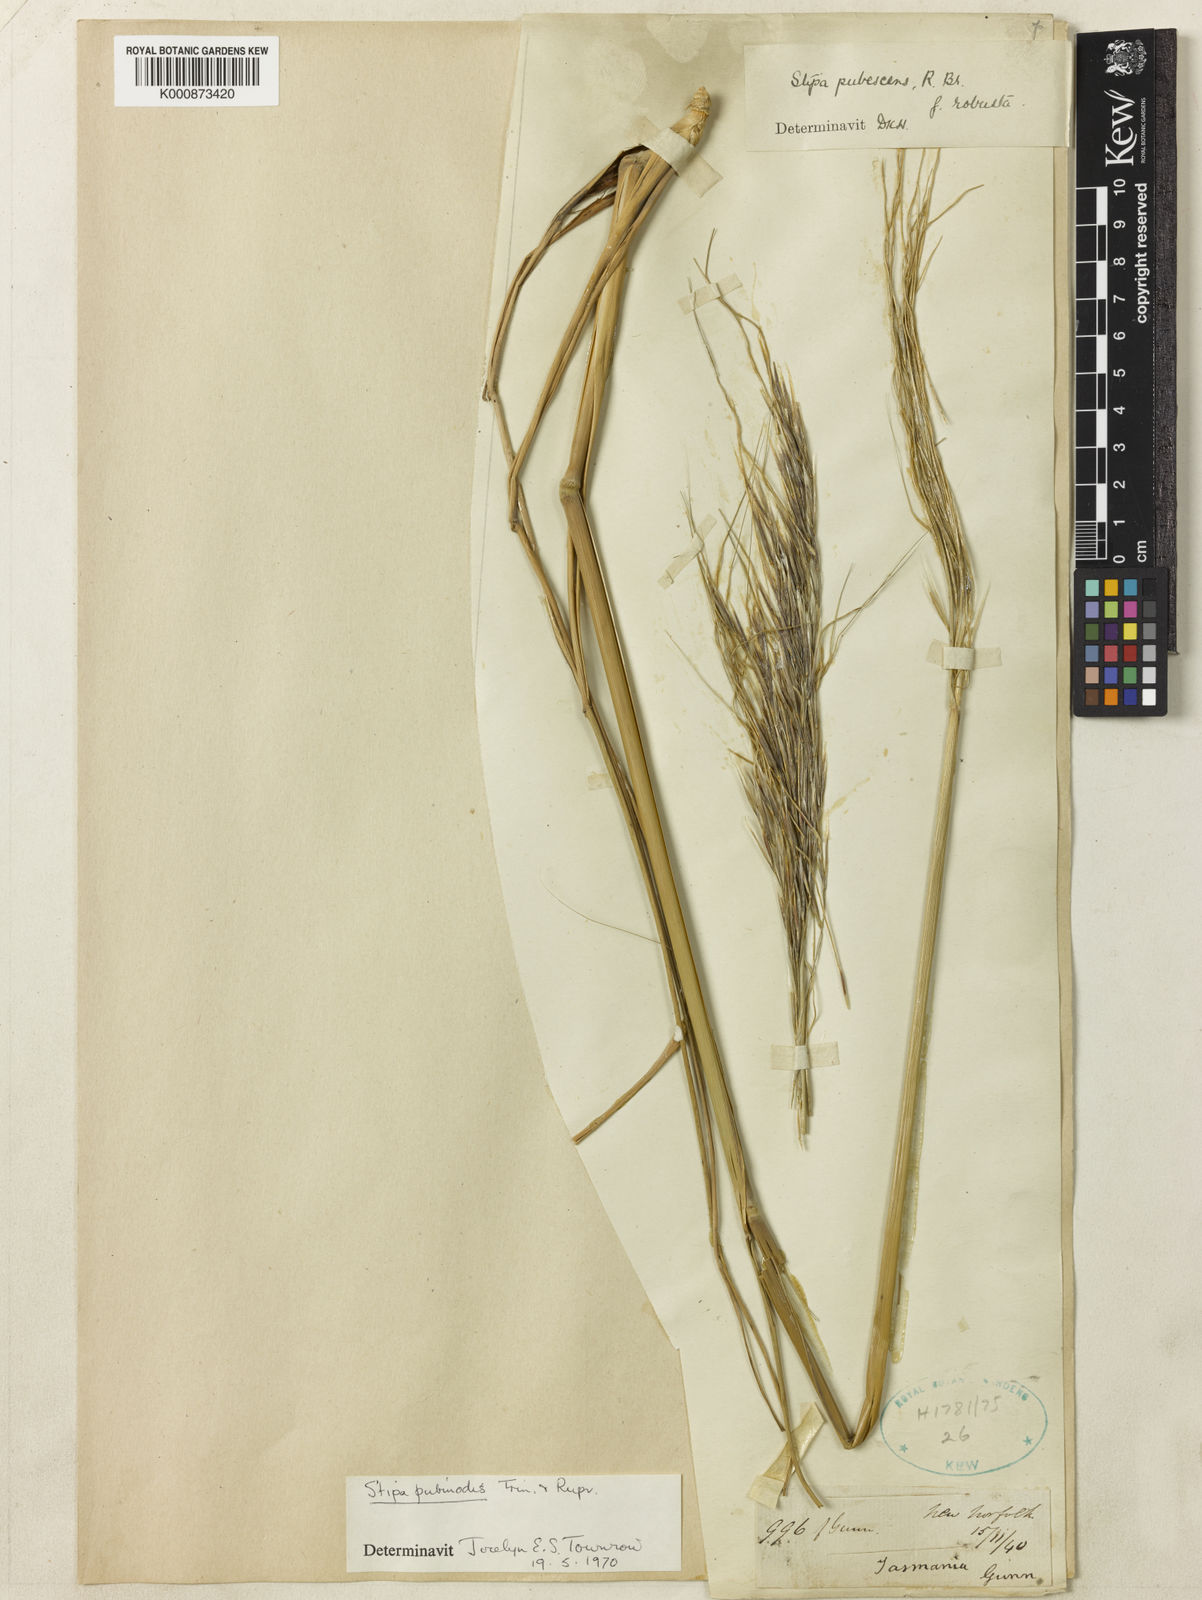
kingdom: Plantae
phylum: Tracheophyta
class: Liliopsida
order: Poales
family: Poaceae
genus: Austrostipa
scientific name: Austrostipa pubinodis
